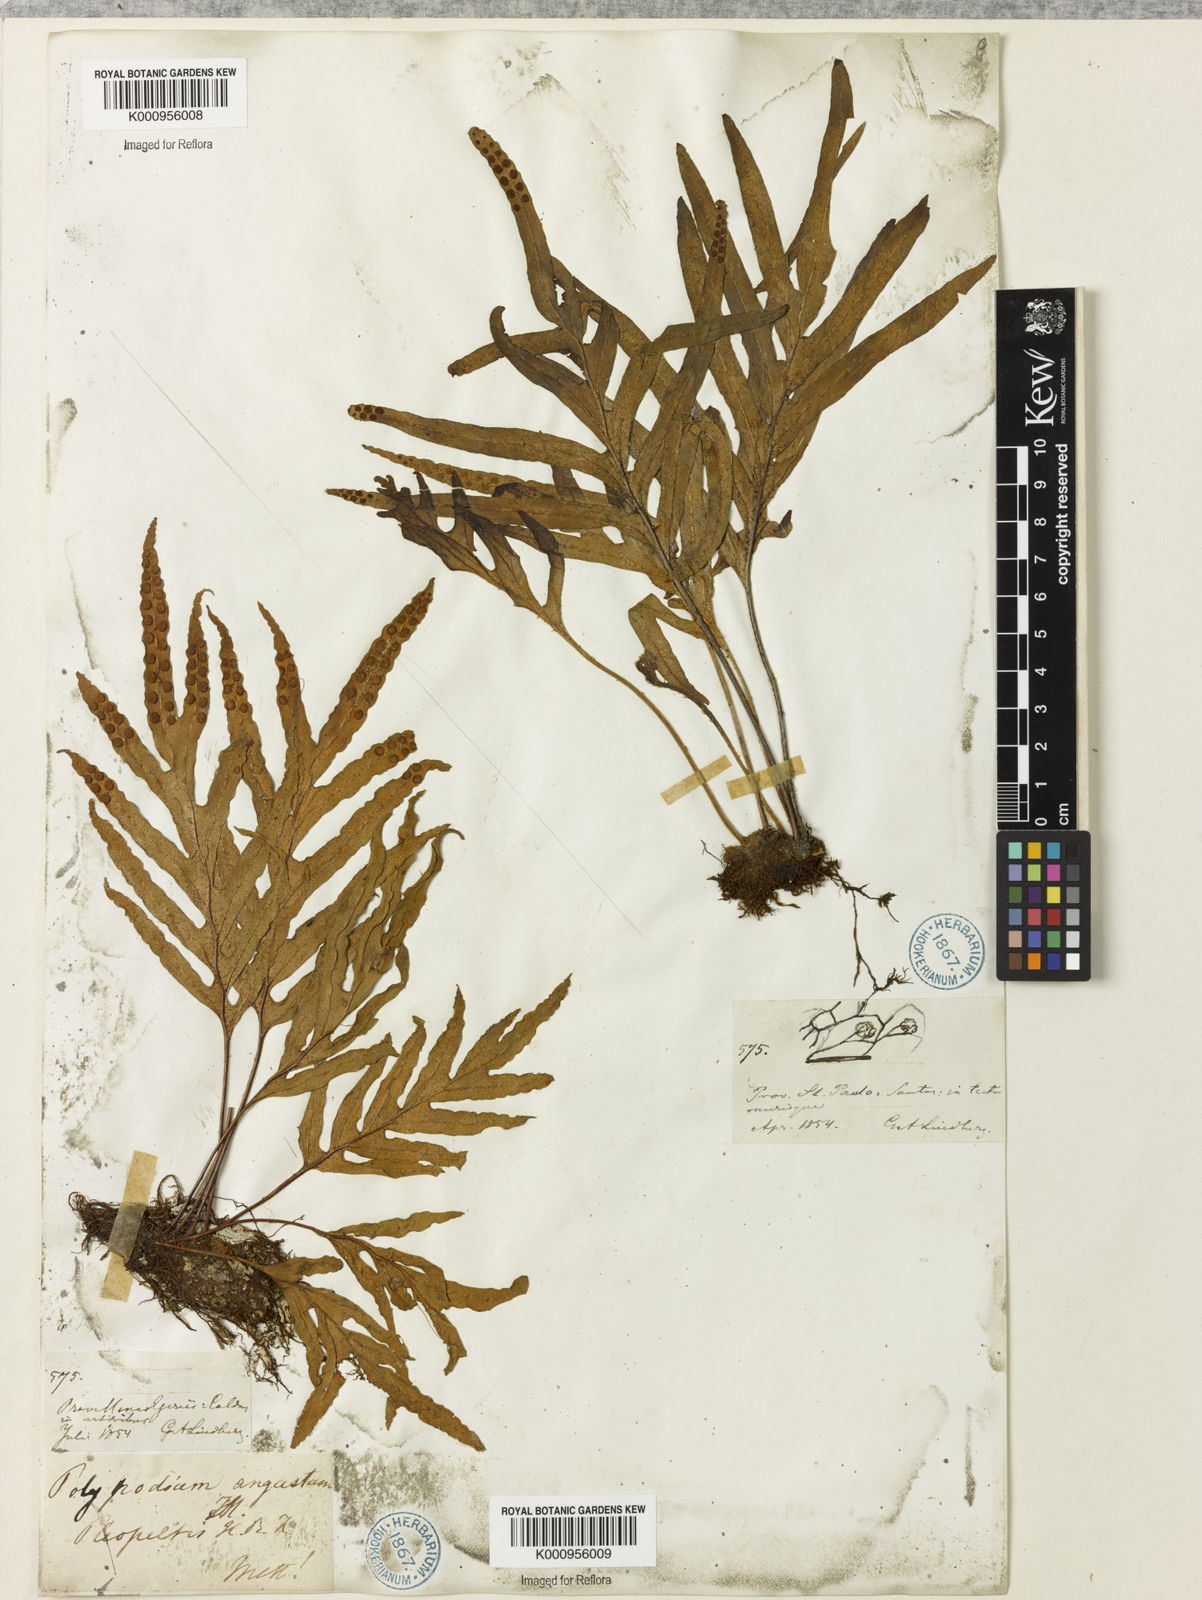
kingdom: Plantae
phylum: Tracheophyta
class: Polypodiopsida
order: Polypodiales
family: Polypodiaceae
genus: Pleopeltis
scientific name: Pleopeltis angusta
